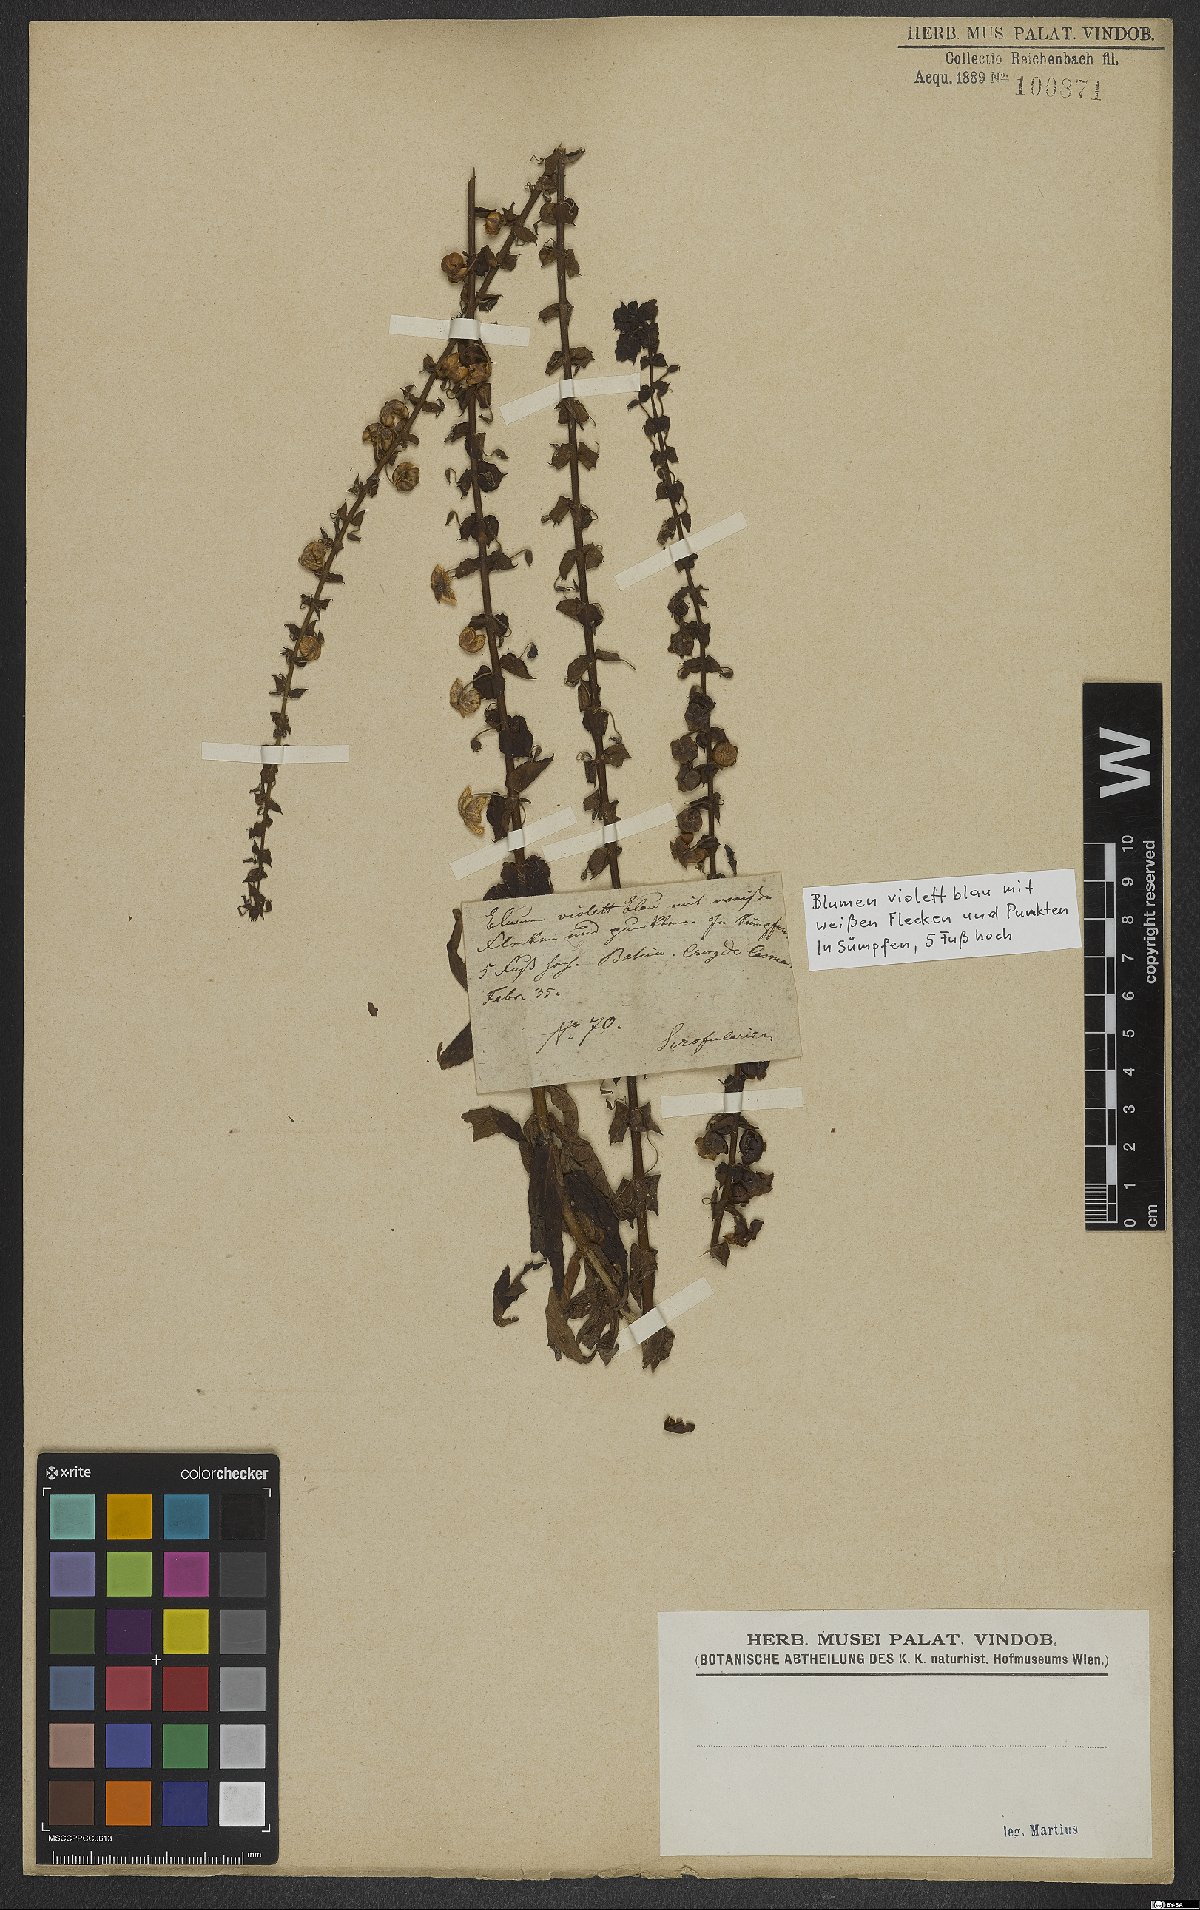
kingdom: Plantae
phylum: Tracheophyta
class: Magnoliopsida
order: Lamiales
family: Scrophulariaceae
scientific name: Scrophulariaceae
